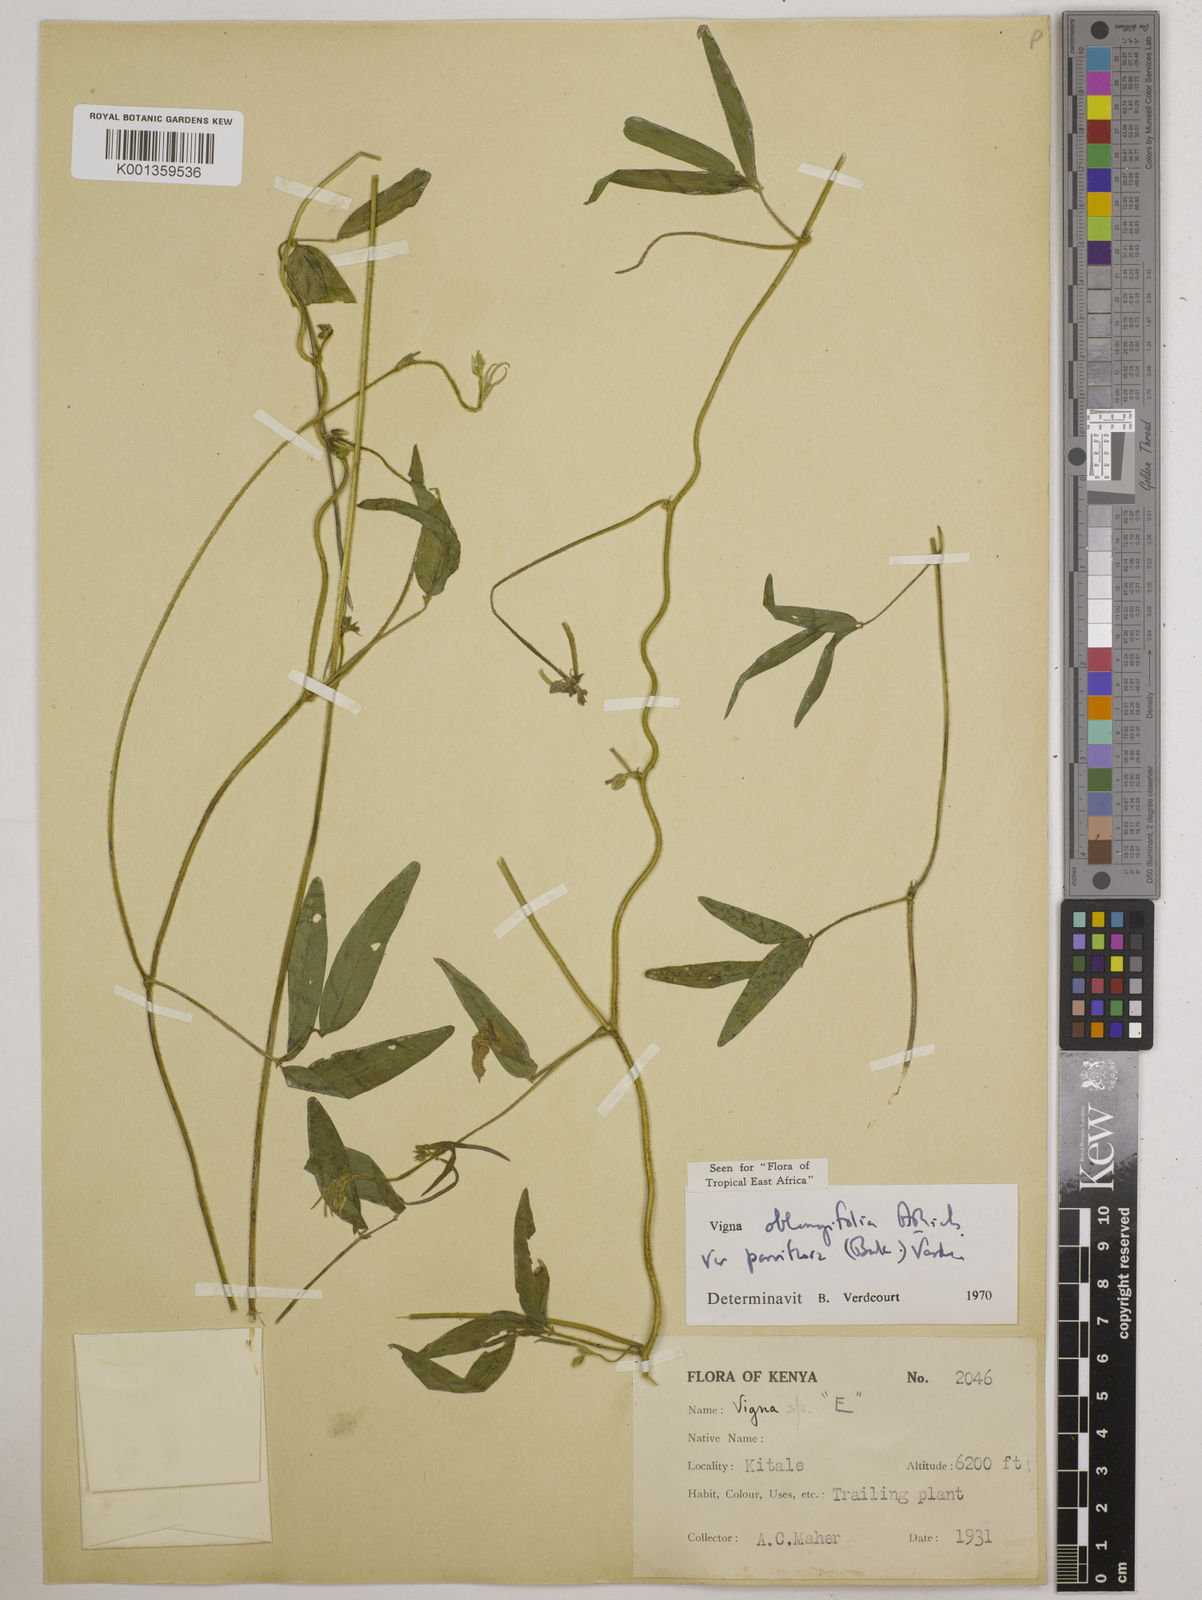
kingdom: Plantae
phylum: Tracheophyta
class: Magnoliopsida
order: Fabales
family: Fabaceae
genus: Vigna
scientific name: Vigna
